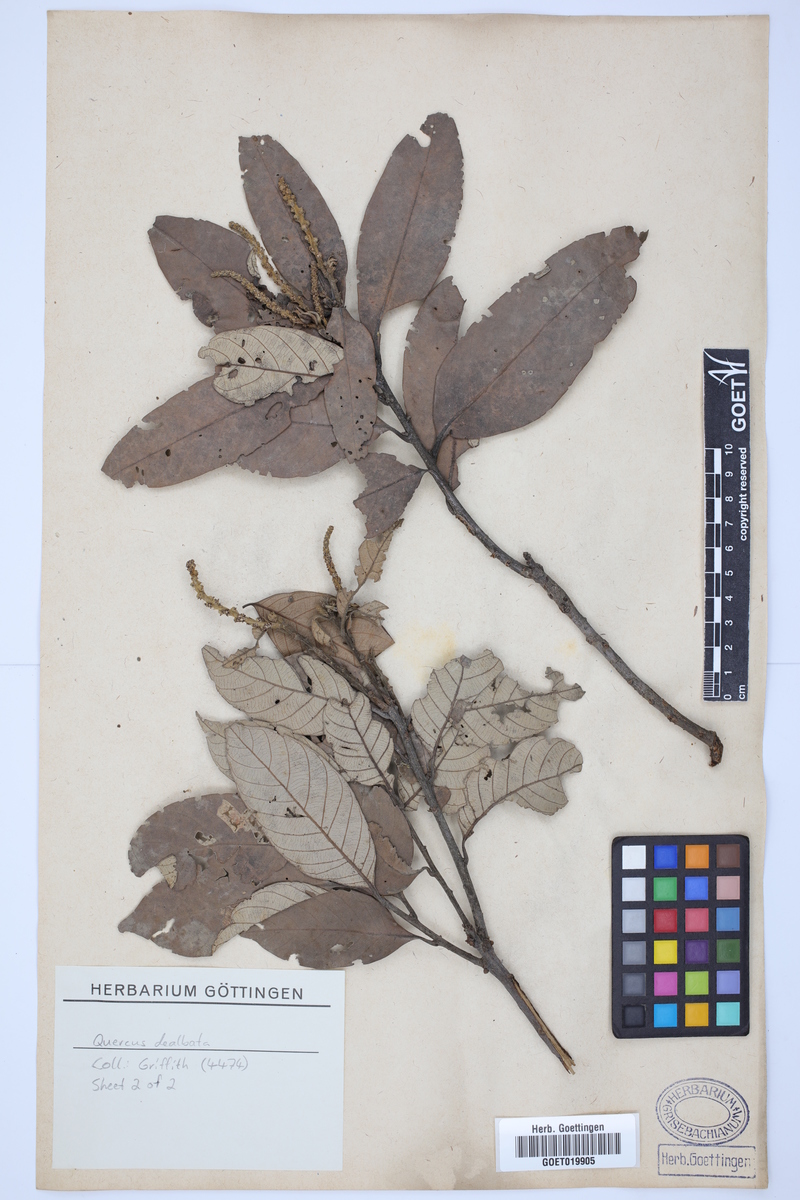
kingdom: Plantae
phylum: Tracheophyta
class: Magnoliopsida
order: Fagales
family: Fagaceae
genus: Lithocarpus
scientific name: Lithocarpus dealbatus
